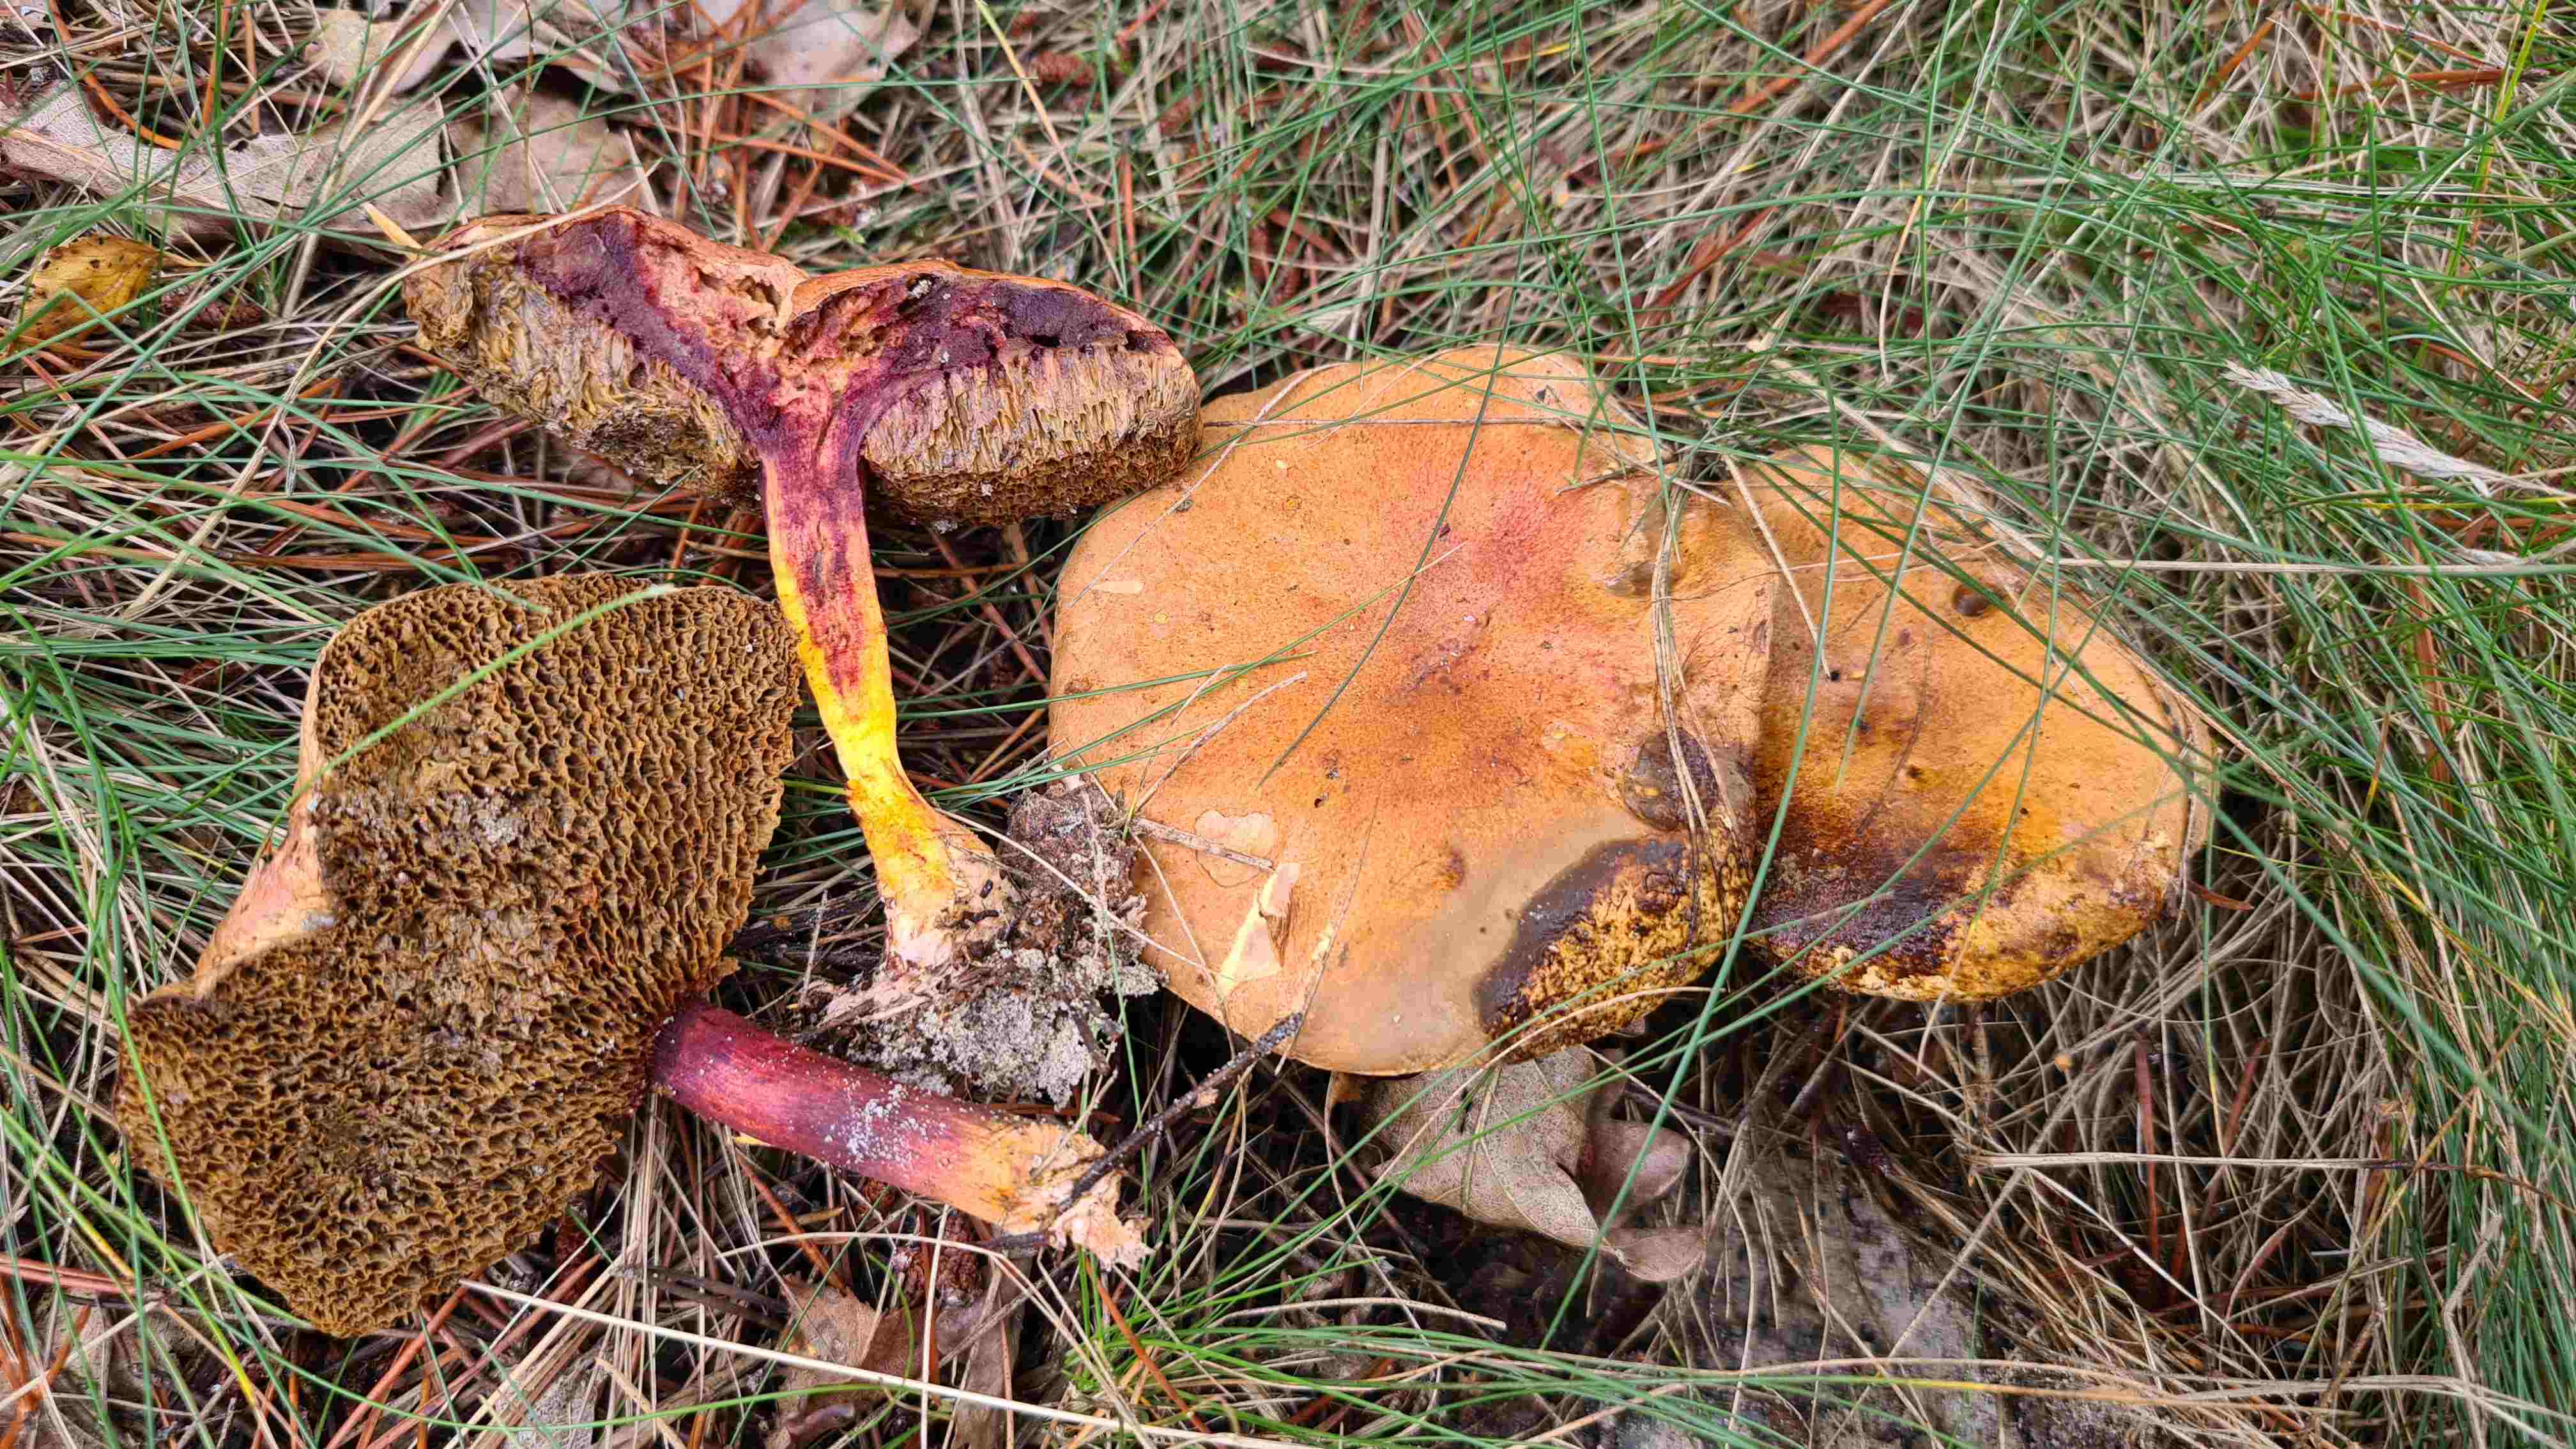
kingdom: Fungi
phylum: Basidiomycota
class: Agaricomycetes
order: Boletales
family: Boletaceae
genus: Chalciporus
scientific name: Chalciporus piperatus
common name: peberrørhat
